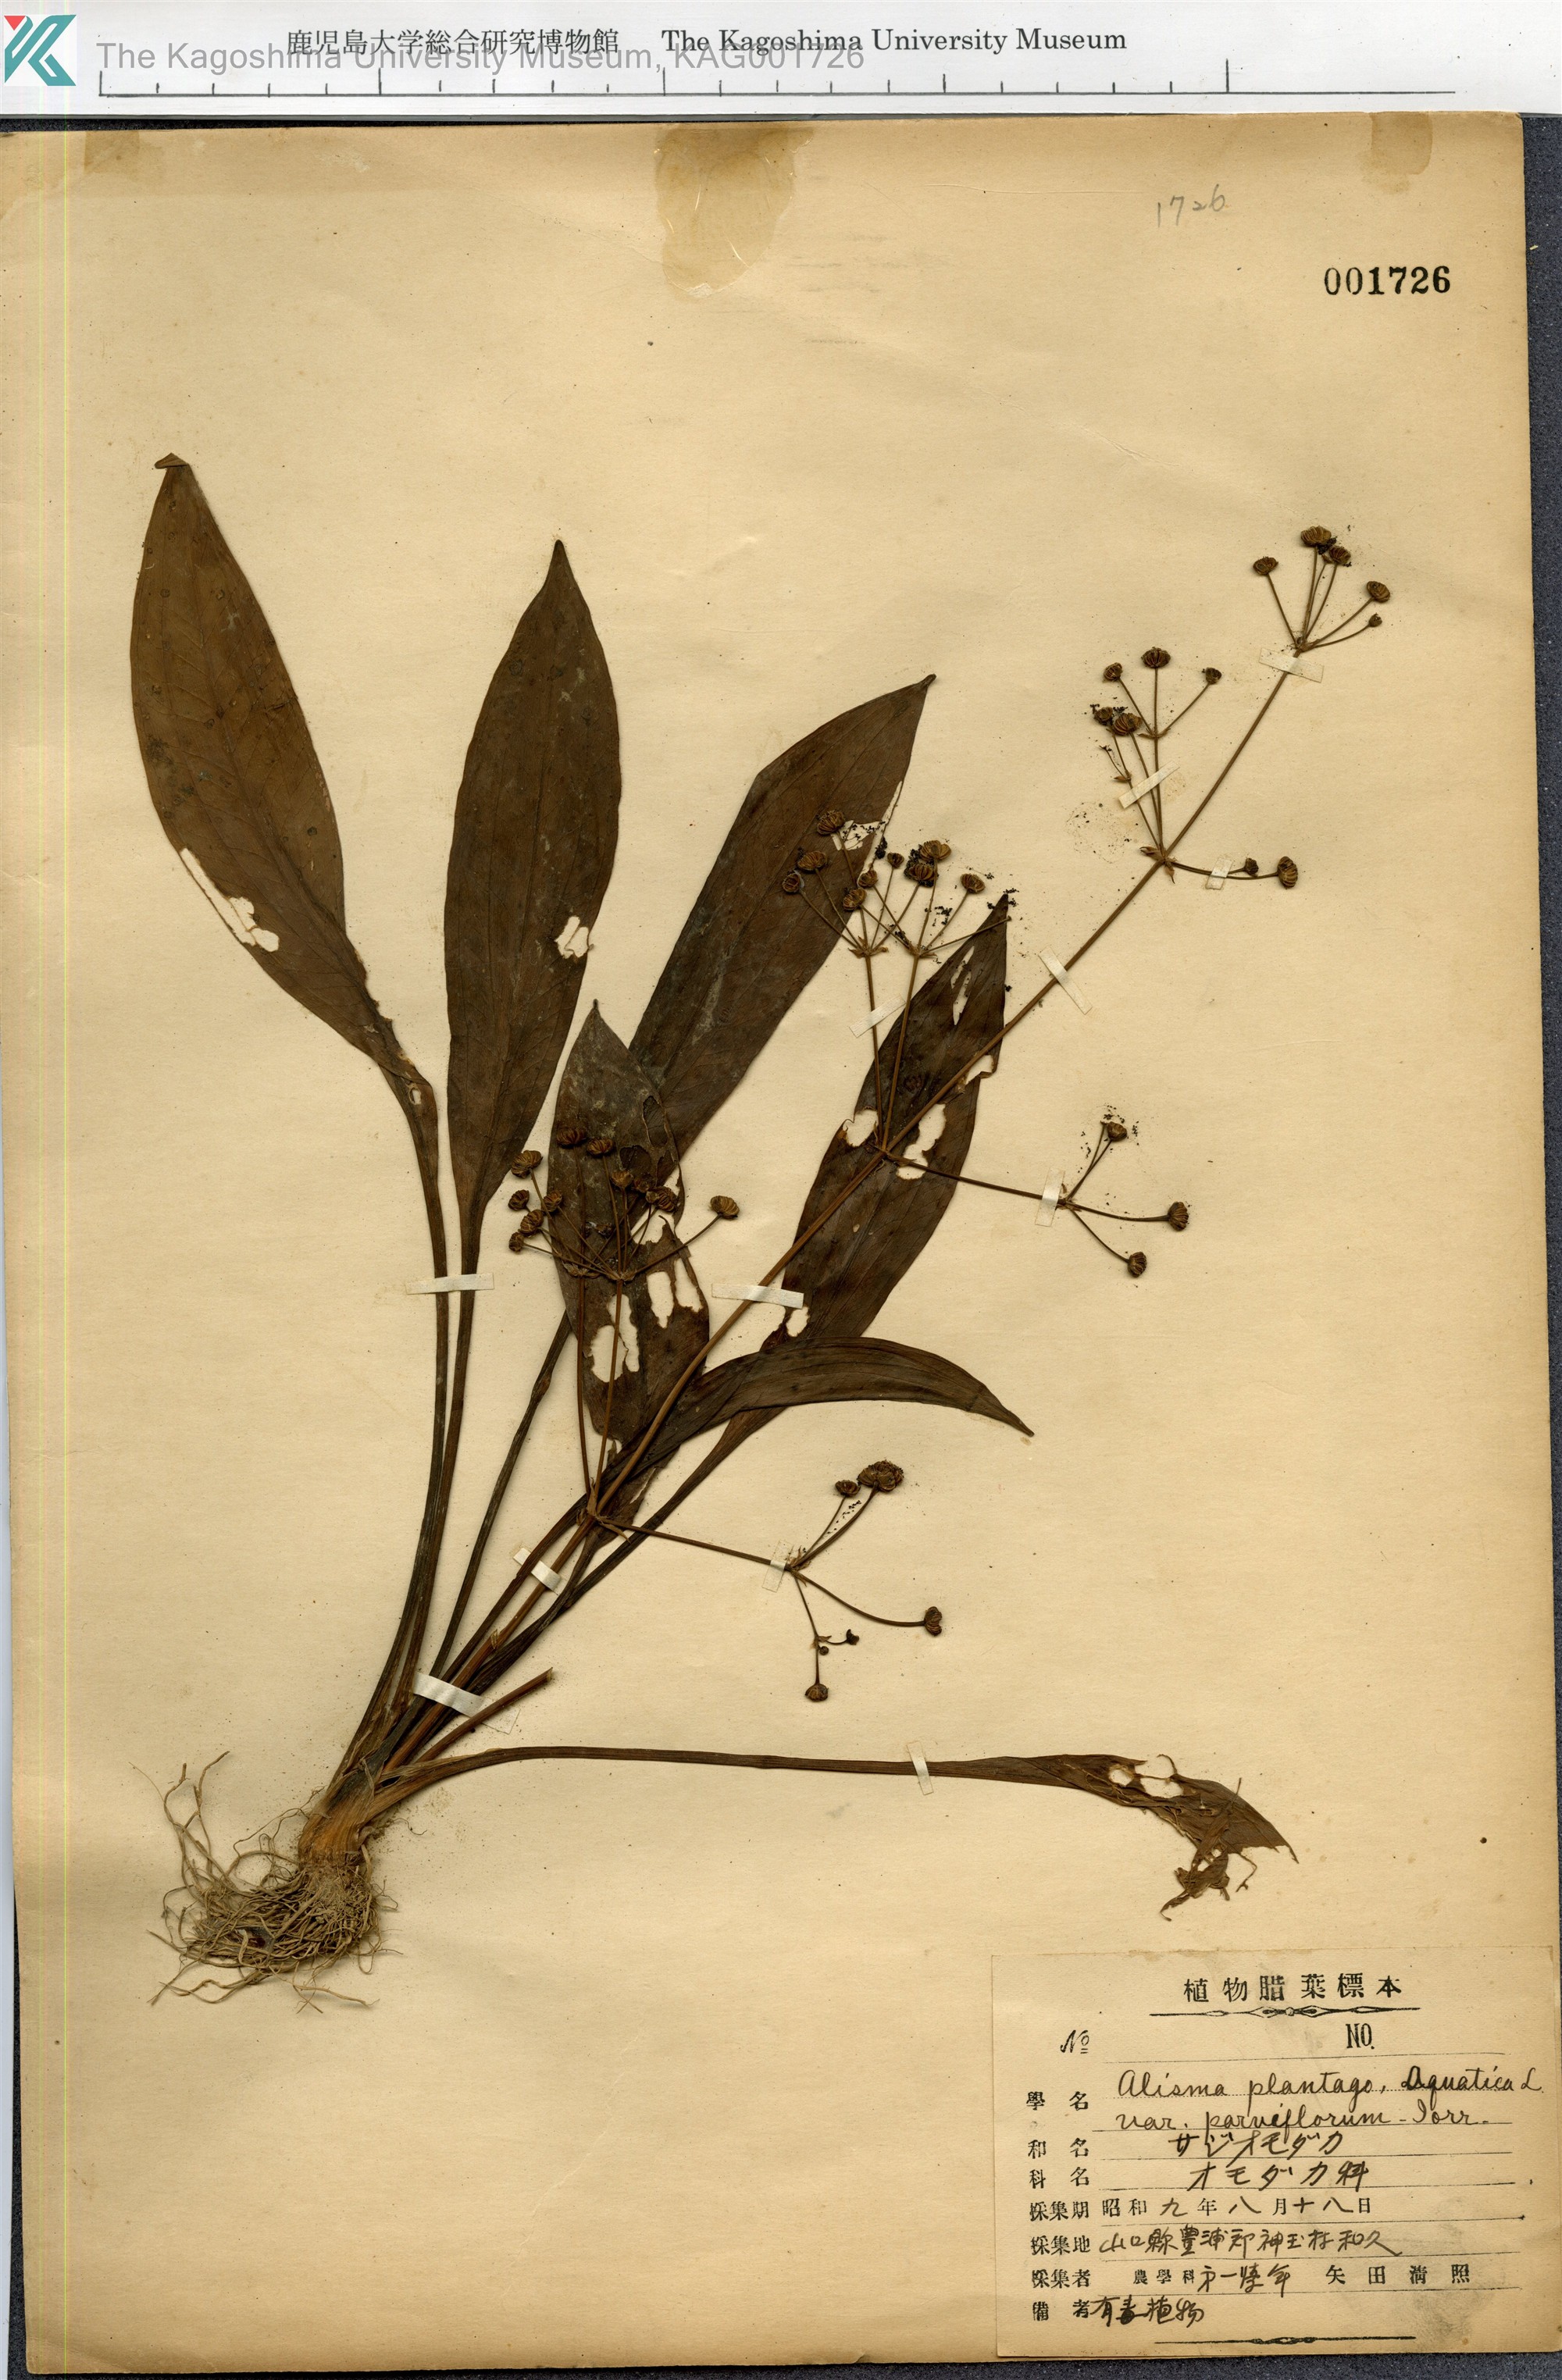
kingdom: Plantae
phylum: Tracheophyta
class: Liliopsida
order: Alismatales
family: Alismataceae
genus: Alisma
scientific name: Alisma canaliculatum
